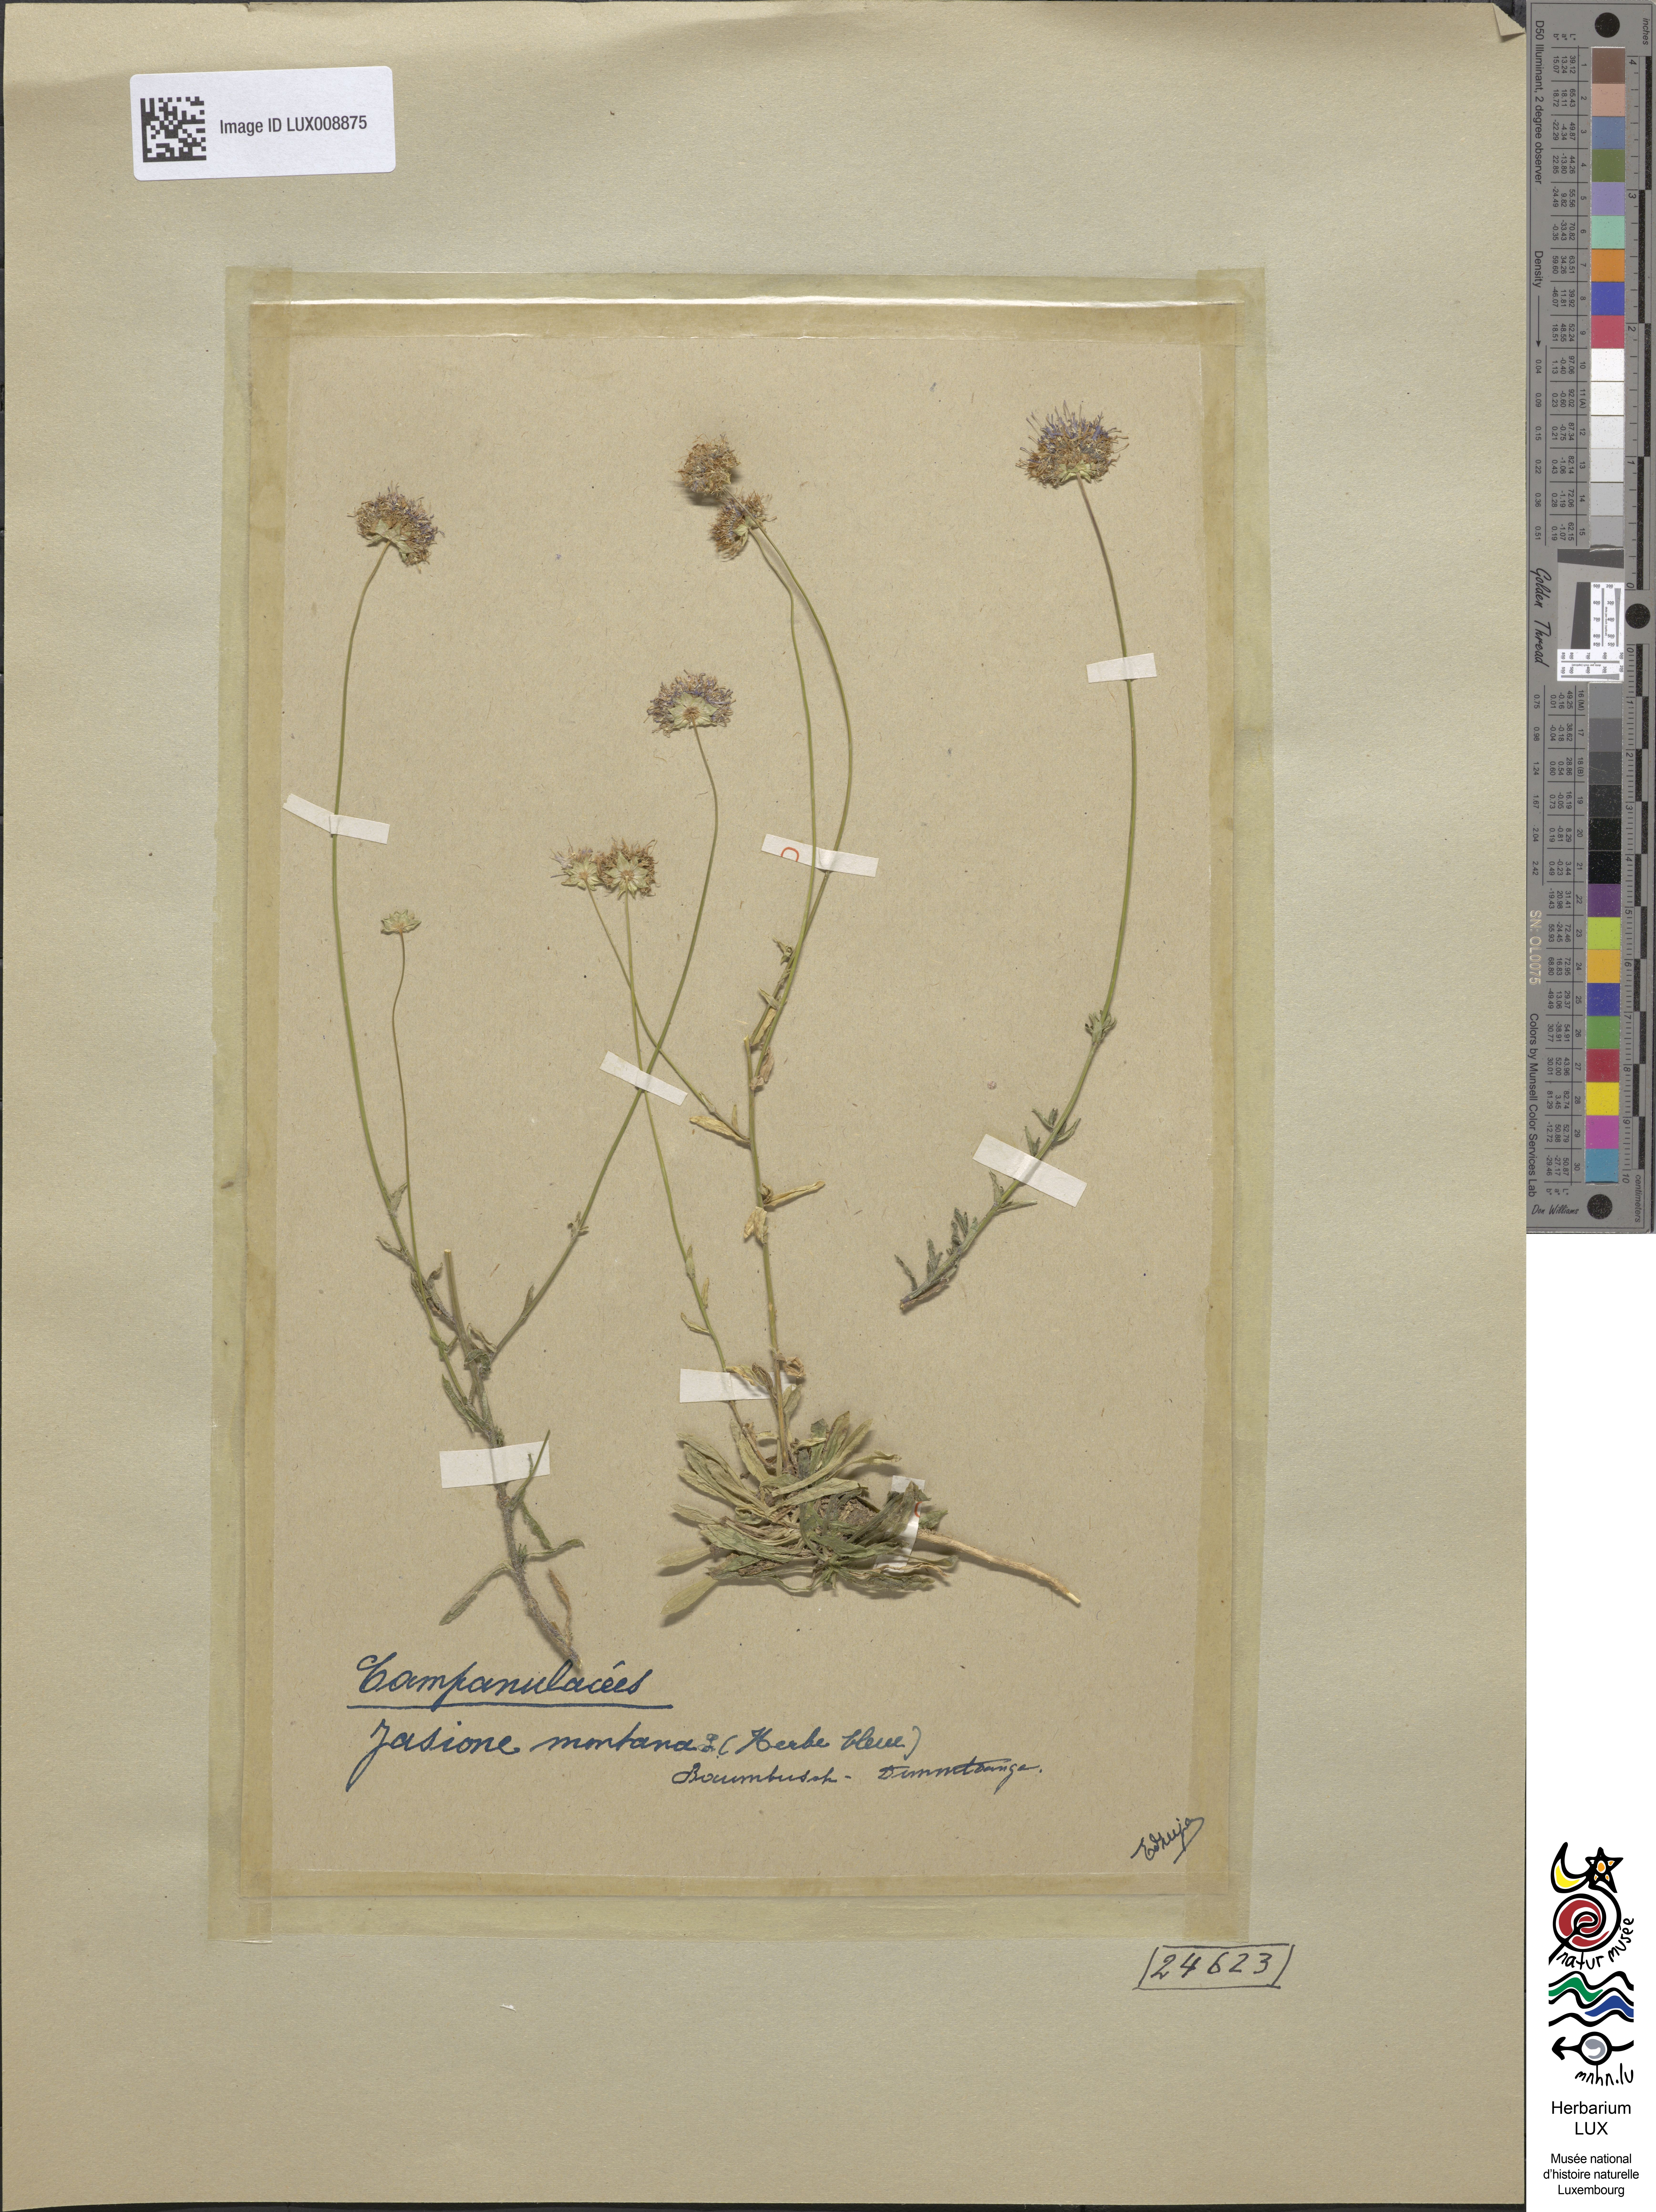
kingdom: Plantae
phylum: Tracheophyta
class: Magnoliopsida
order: Asterales
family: Campanulaceae
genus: Jasione
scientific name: Jasione montana
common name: Sheep's-bit
